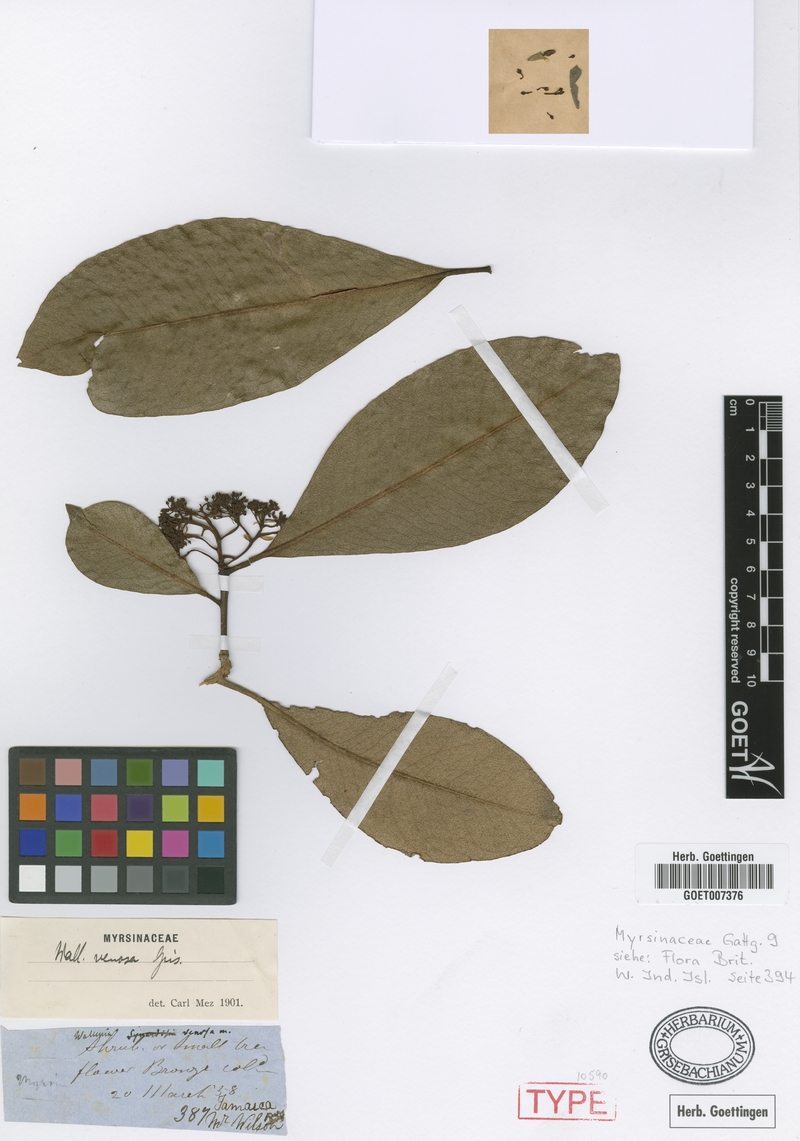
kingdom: Plantae
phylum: Tracheophyta
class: Magnoliopsida
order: Ericales
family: Primulaceae
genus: Wallenia
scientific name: Wallenia venosa
